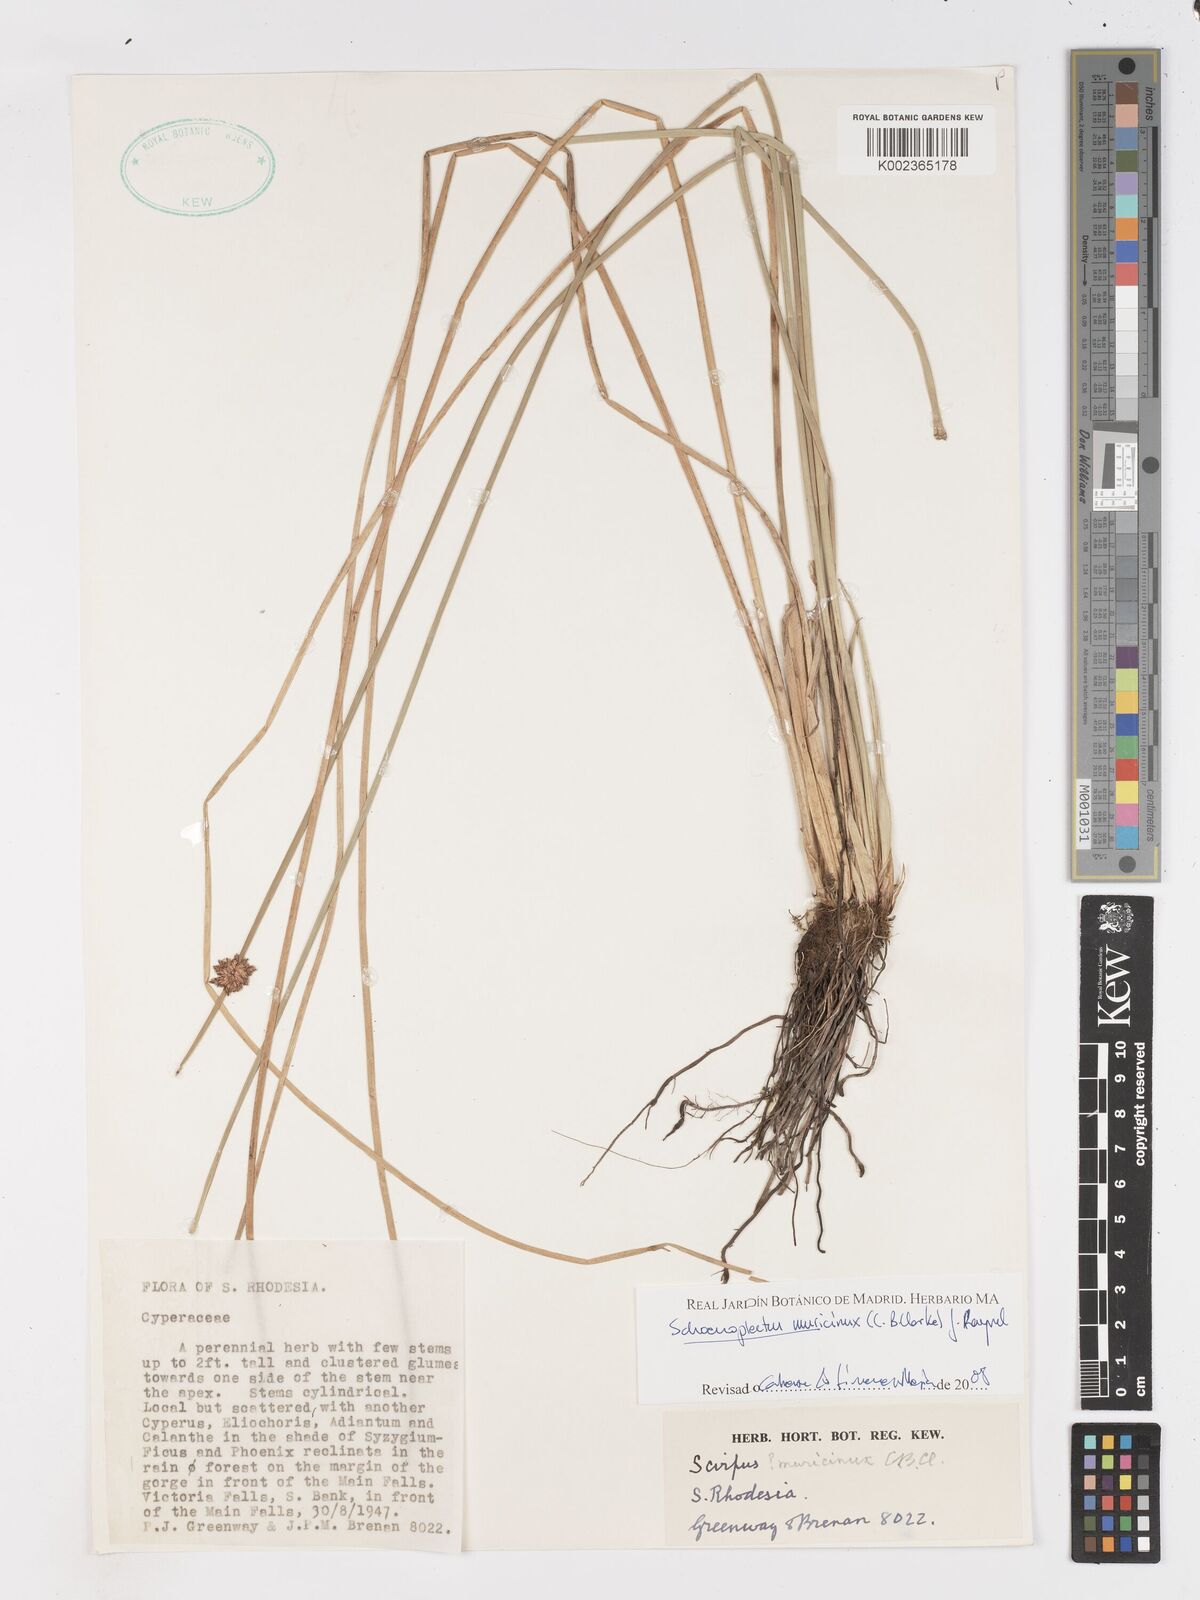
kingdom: Plantae
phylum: Tracheophyta
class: Liliopsida
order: Poales
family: Cyperaceae
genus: Schoenoplectiella
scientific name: Schoenoplectiella muricinux
